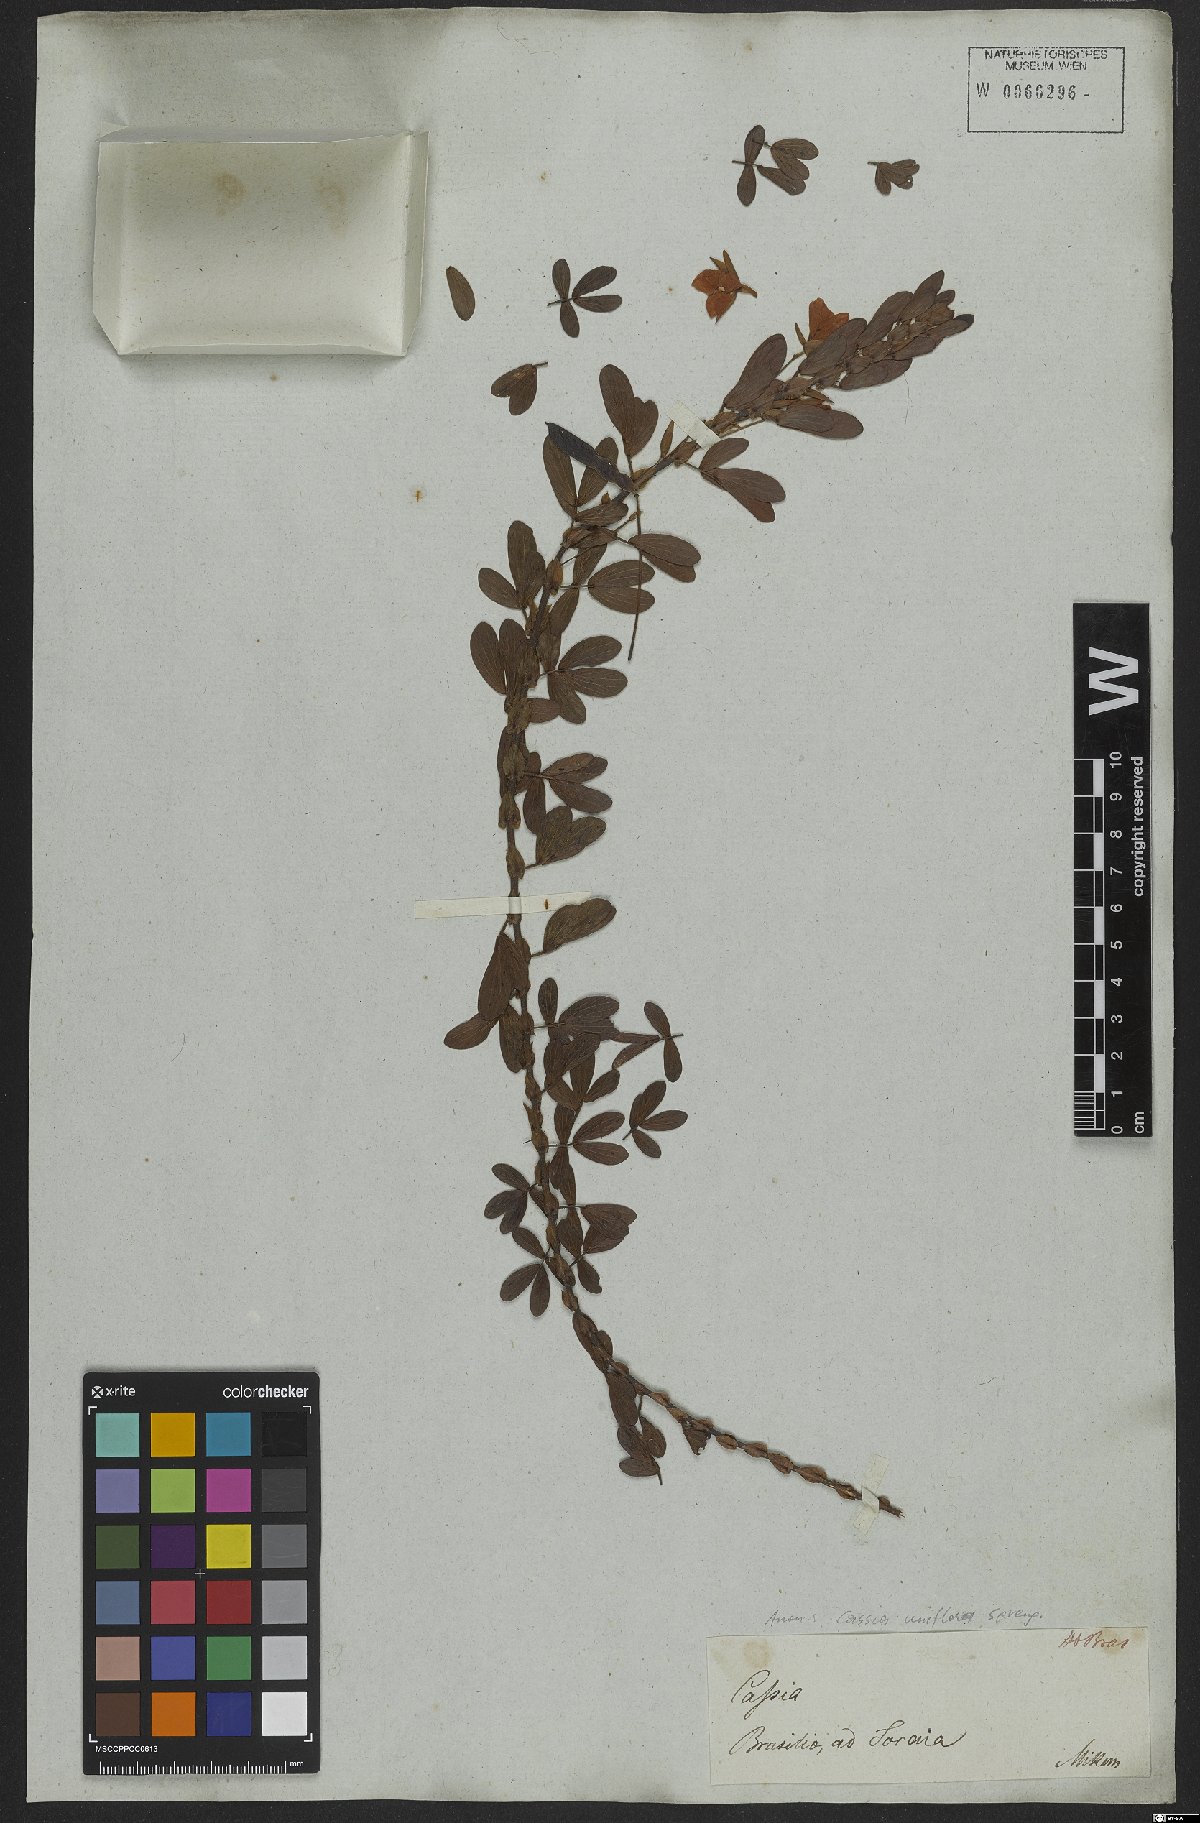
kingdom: Plantae
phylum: Tracheophyta
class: Magnoliopsida
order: Fabales
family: Fabaceae
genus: Senna
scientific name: Senna uniflora
